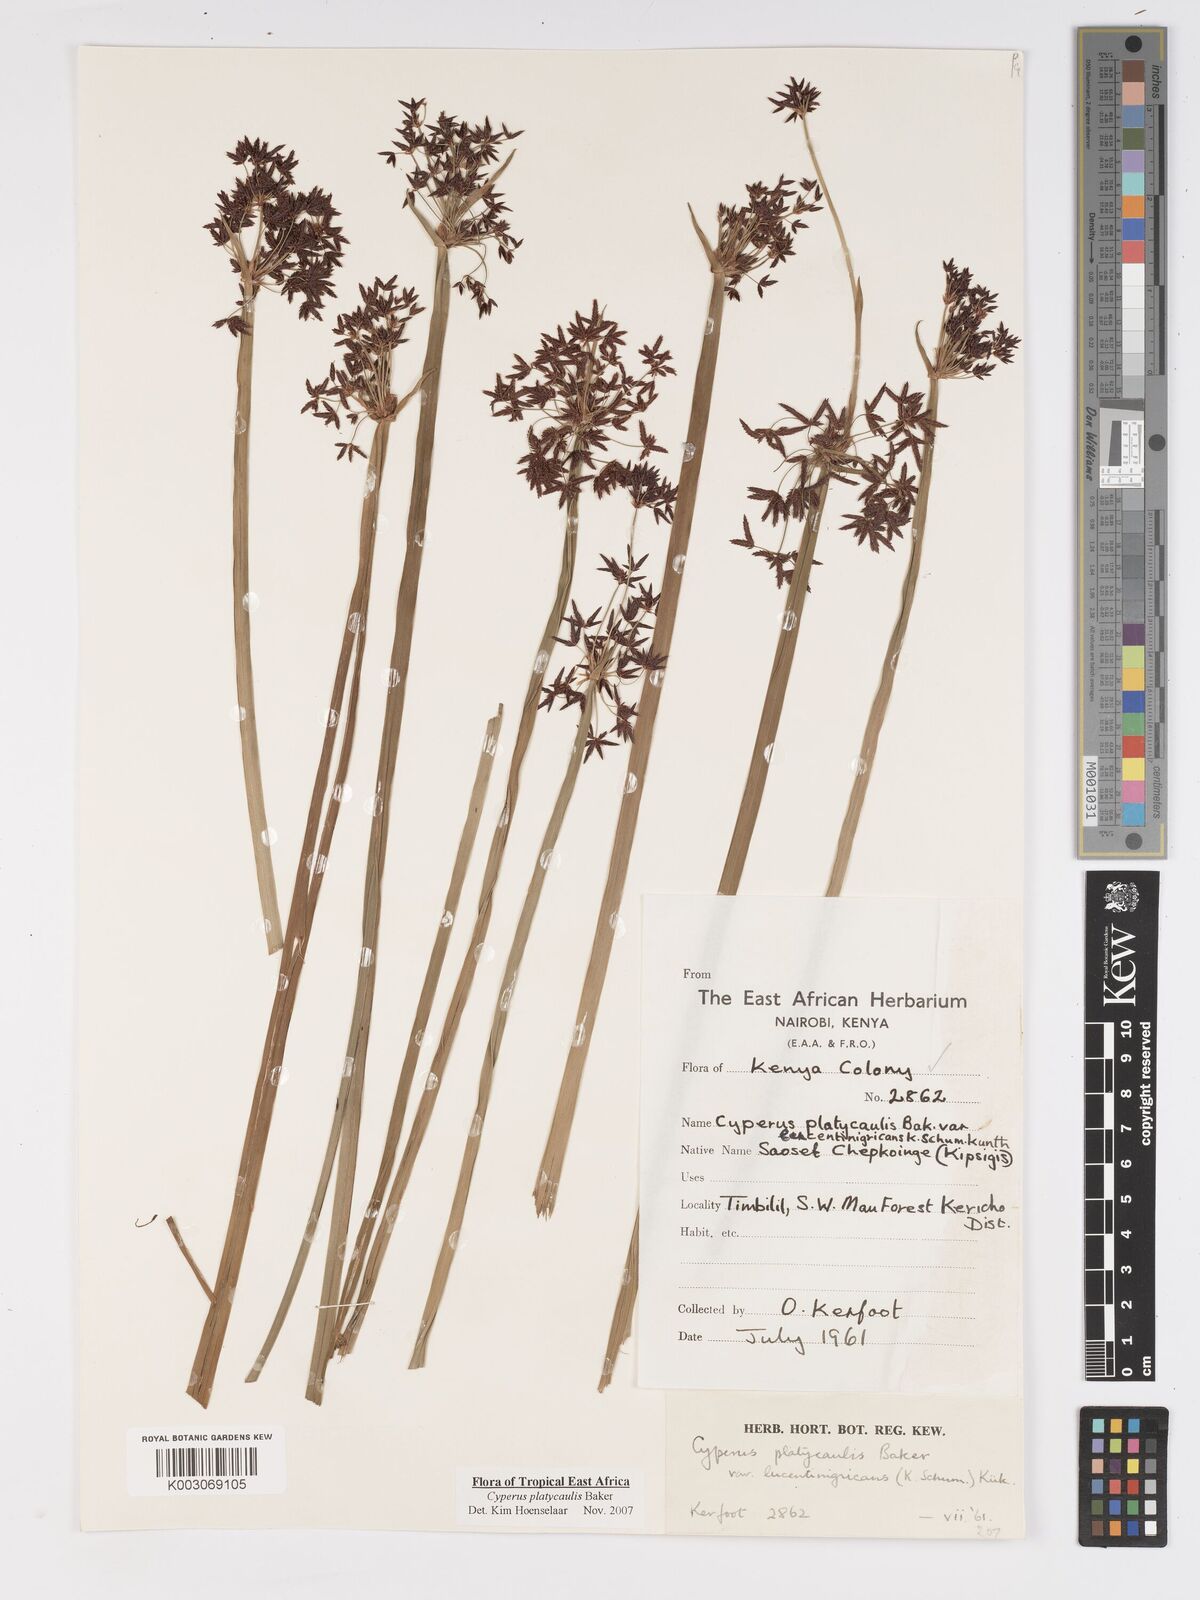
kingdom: Plantae
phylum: Tracheophyta
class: Liliopsida
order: Poales
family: Cyperaceae
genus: Cyperus
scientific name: Cyperus platycaulis
